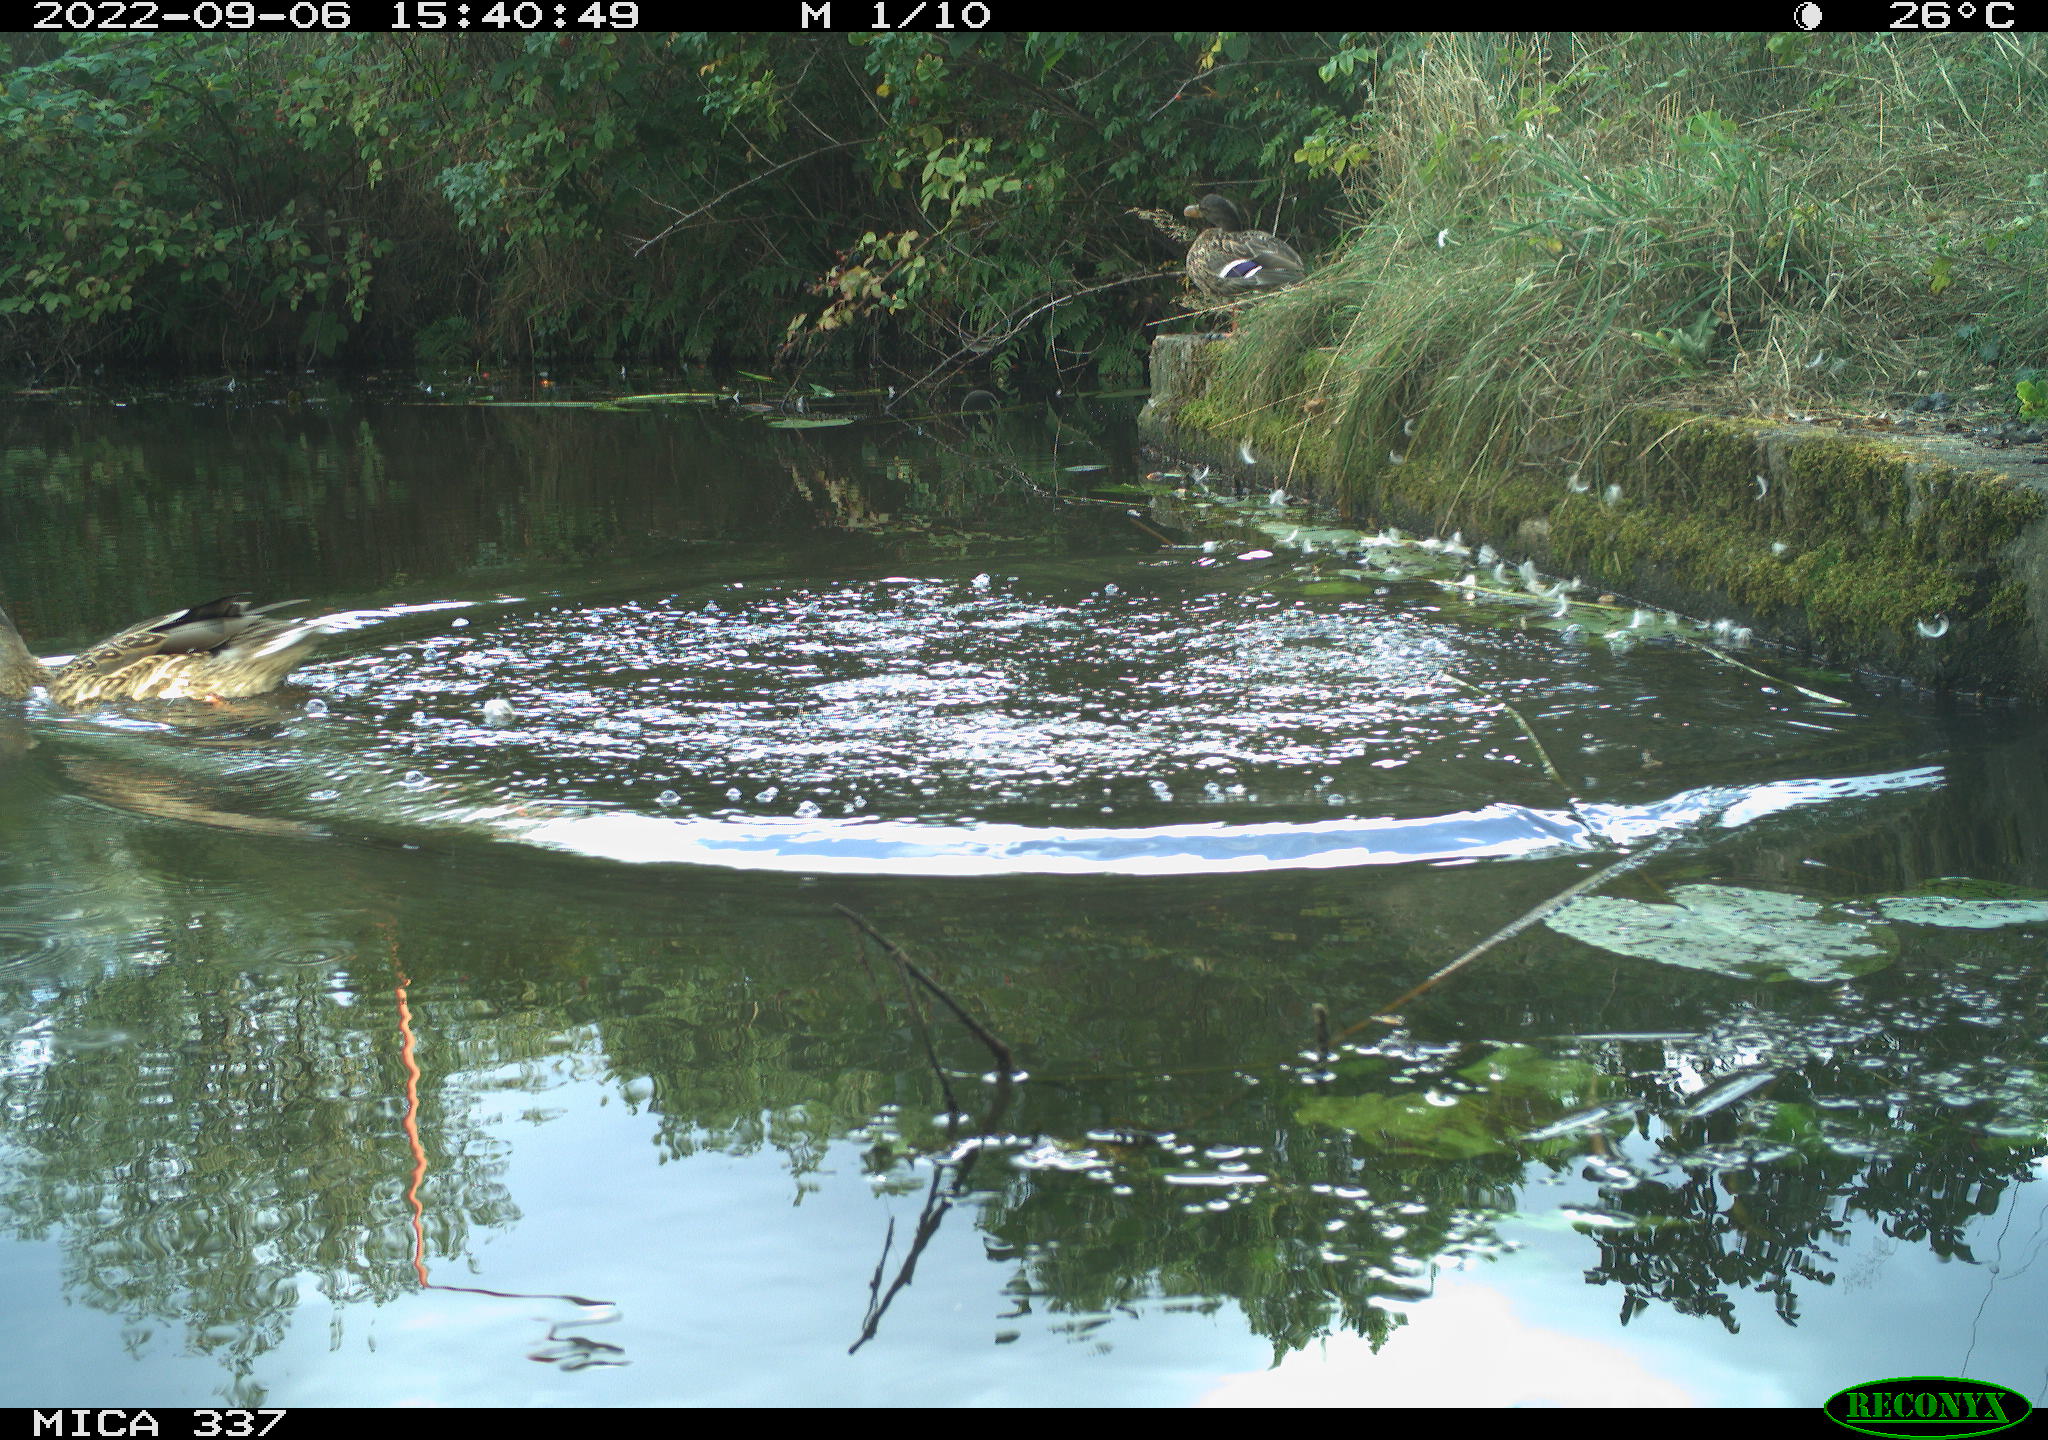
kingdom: Animalia
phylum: Chordata
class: Aves
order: Anseriformes
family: Anatidae
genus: Anas
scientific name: Anas platyrhynchos
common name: Mallard
